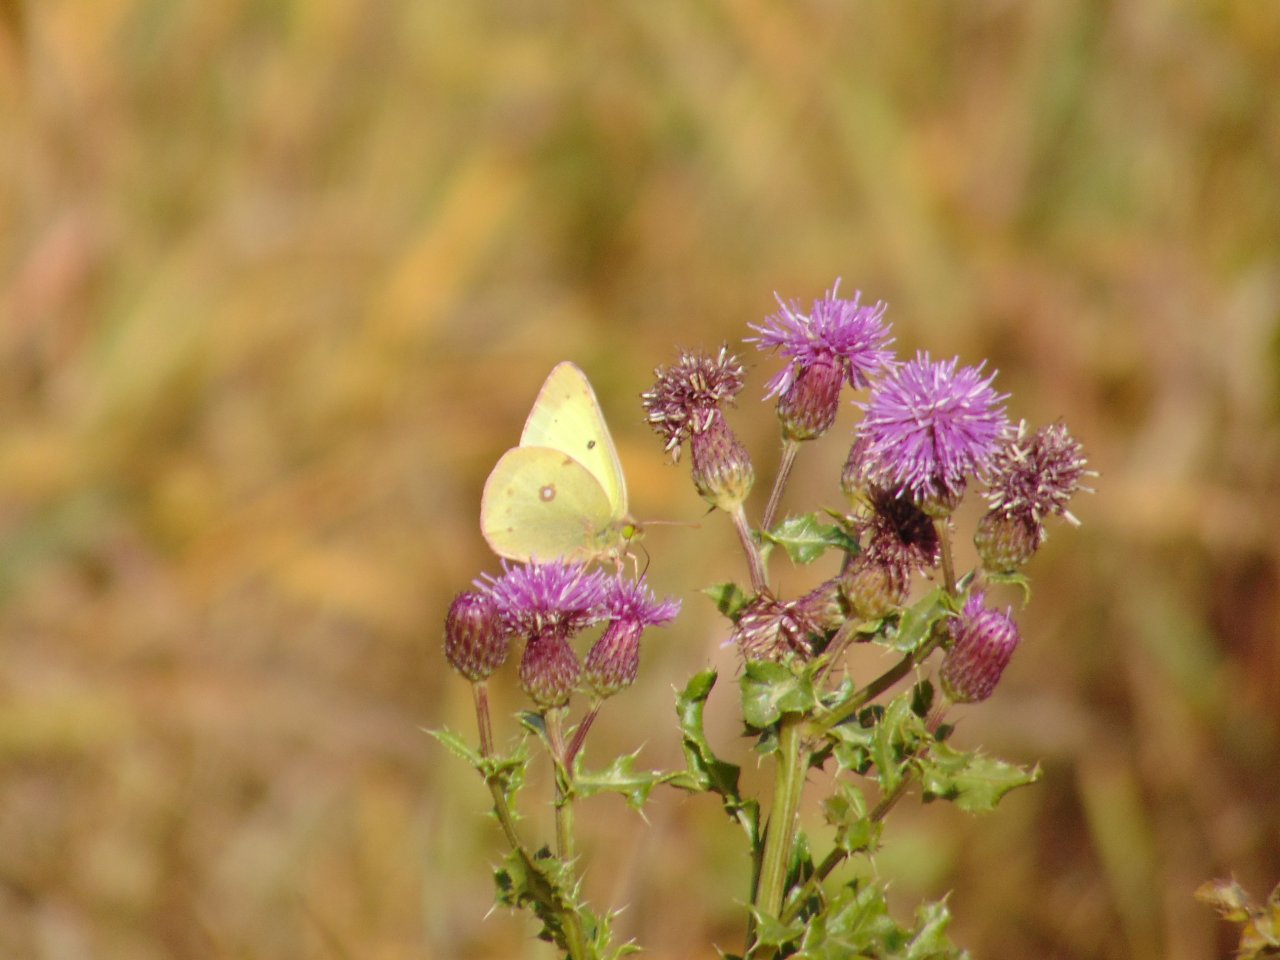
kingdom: Animalia
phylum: Arthropoda
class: Insecta
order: Lepidoptera
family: Pieridae
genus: Colias
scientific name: Colias philodice
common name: Clouded Sulphur
